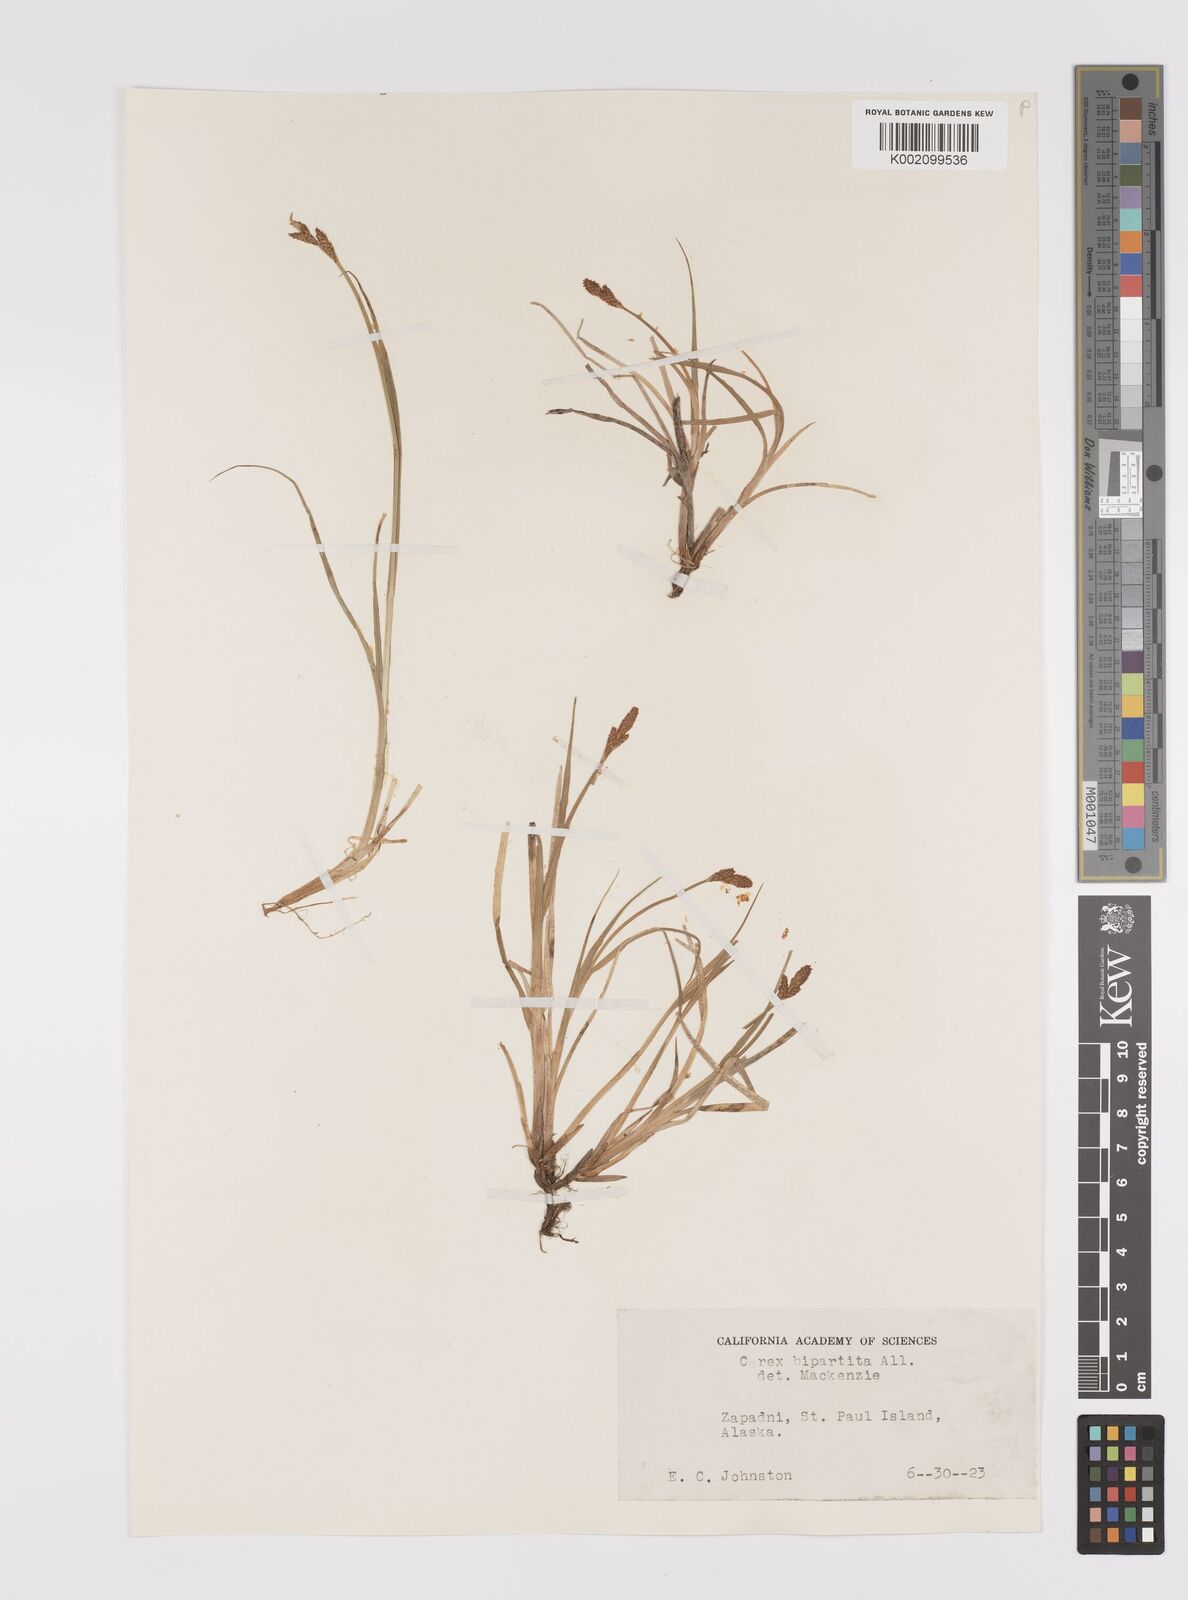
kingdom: Plantae
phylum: Tracheophyta
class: Liliopsida
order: Poales
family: Cyperaceae
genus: Carex
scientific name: Carex lachenalii
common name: Hare's-foot sedge
